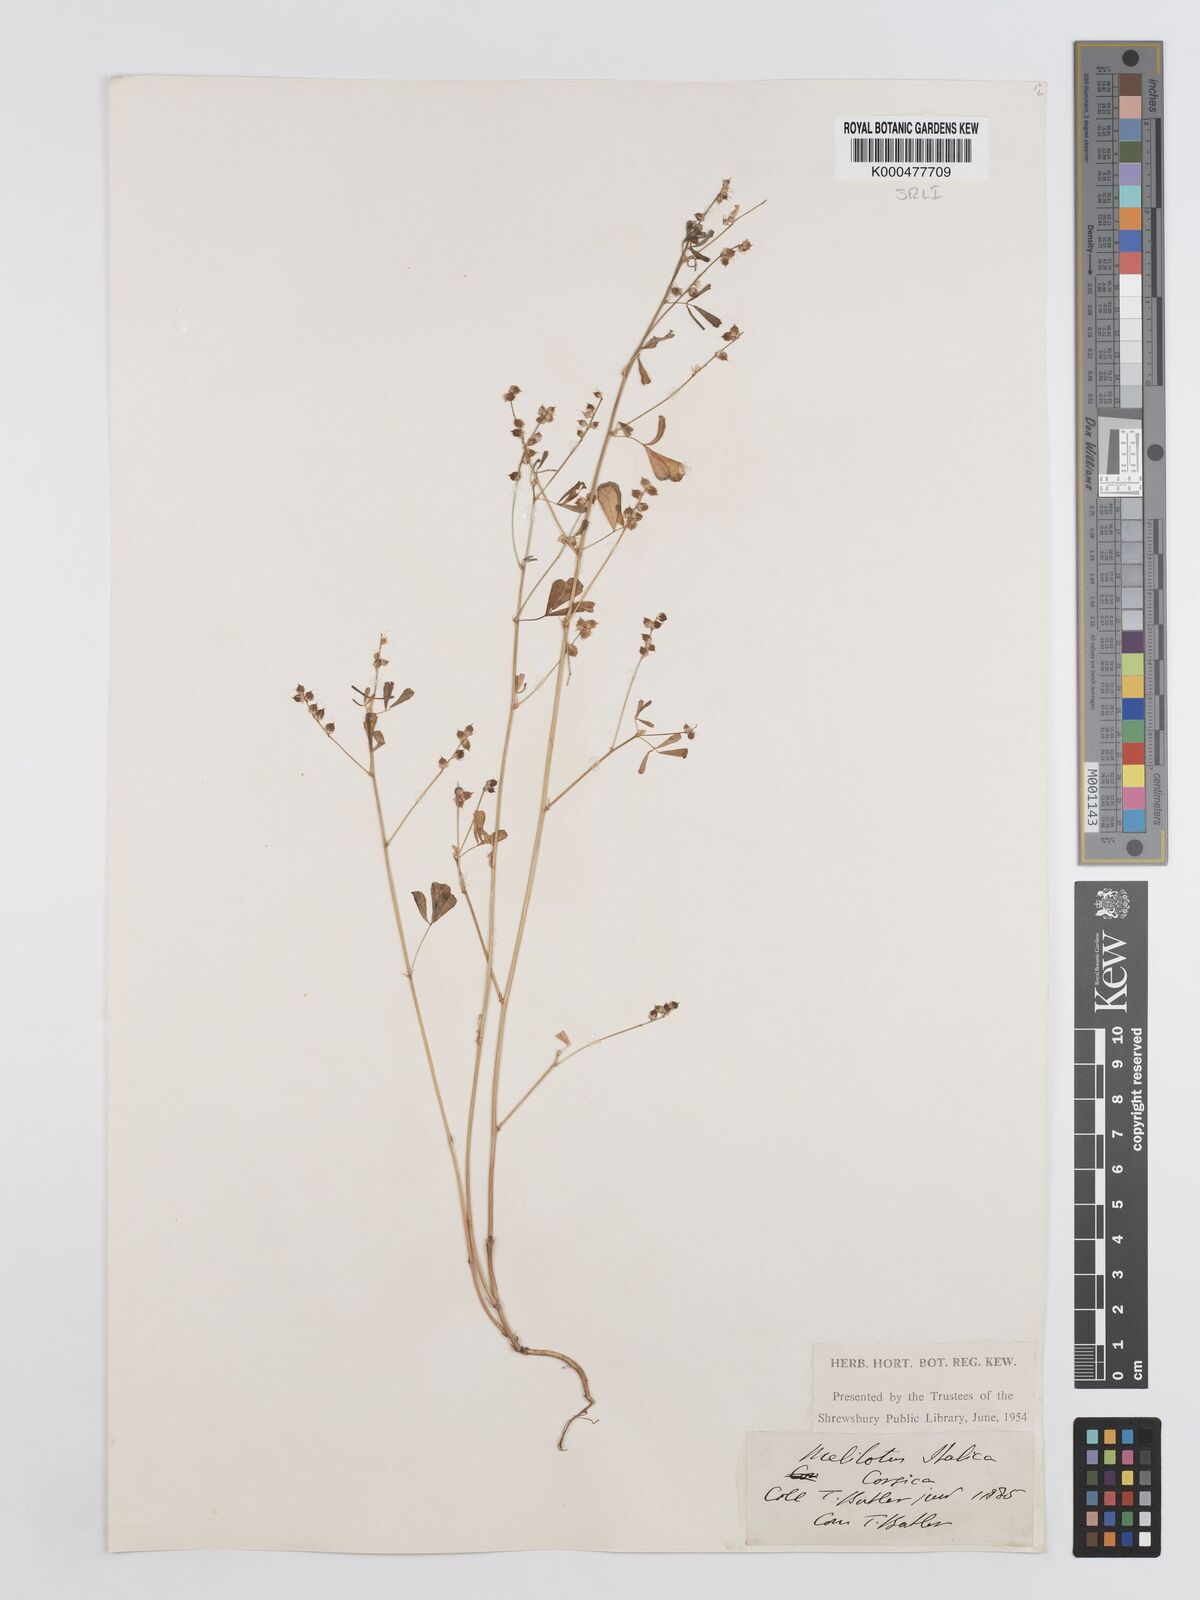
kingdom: Plantae
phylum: Tracheophyta
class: Magnoliopsida
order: Fabales
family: Fabaceae
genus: Melilotus
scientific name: Melilotus italicus
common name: Italian melilot
